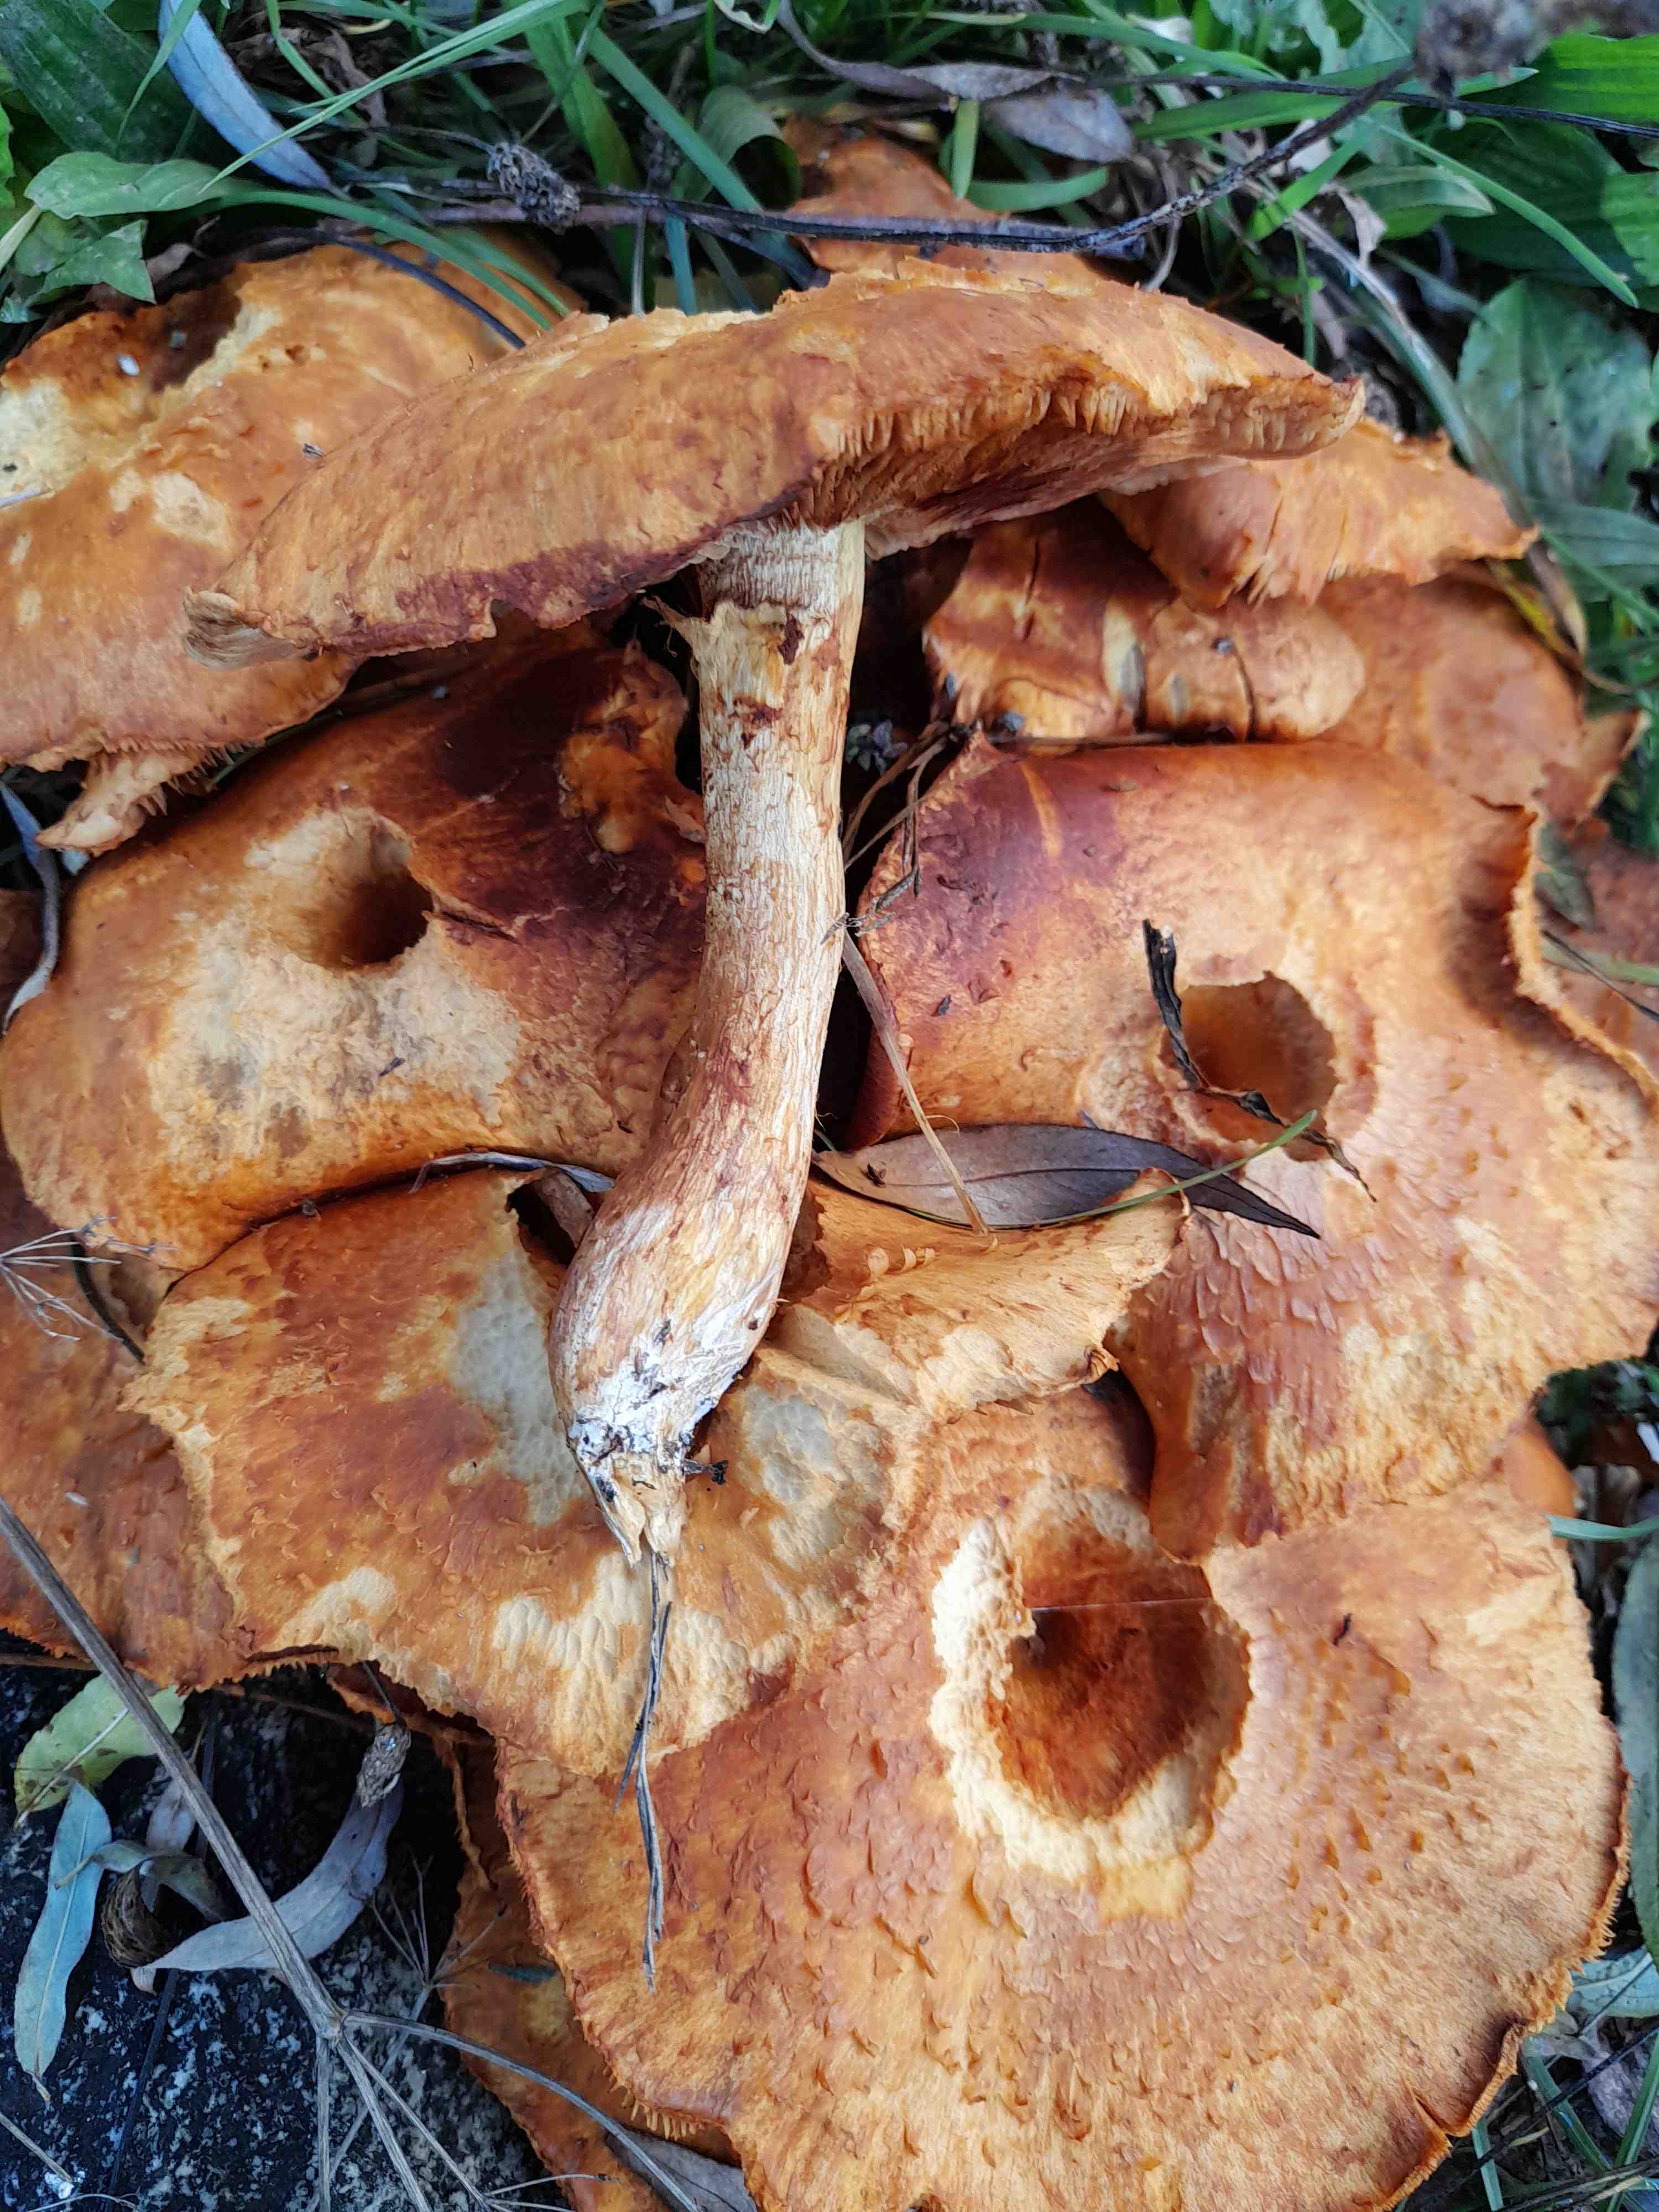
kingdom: Fungi
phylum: Basidiomycota
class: Agaricomycetes
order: Agaricales
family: Hymenogastraceae
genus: Gymnopilus
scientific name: Gymnopilus spectabilis
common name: fibret flammehat
